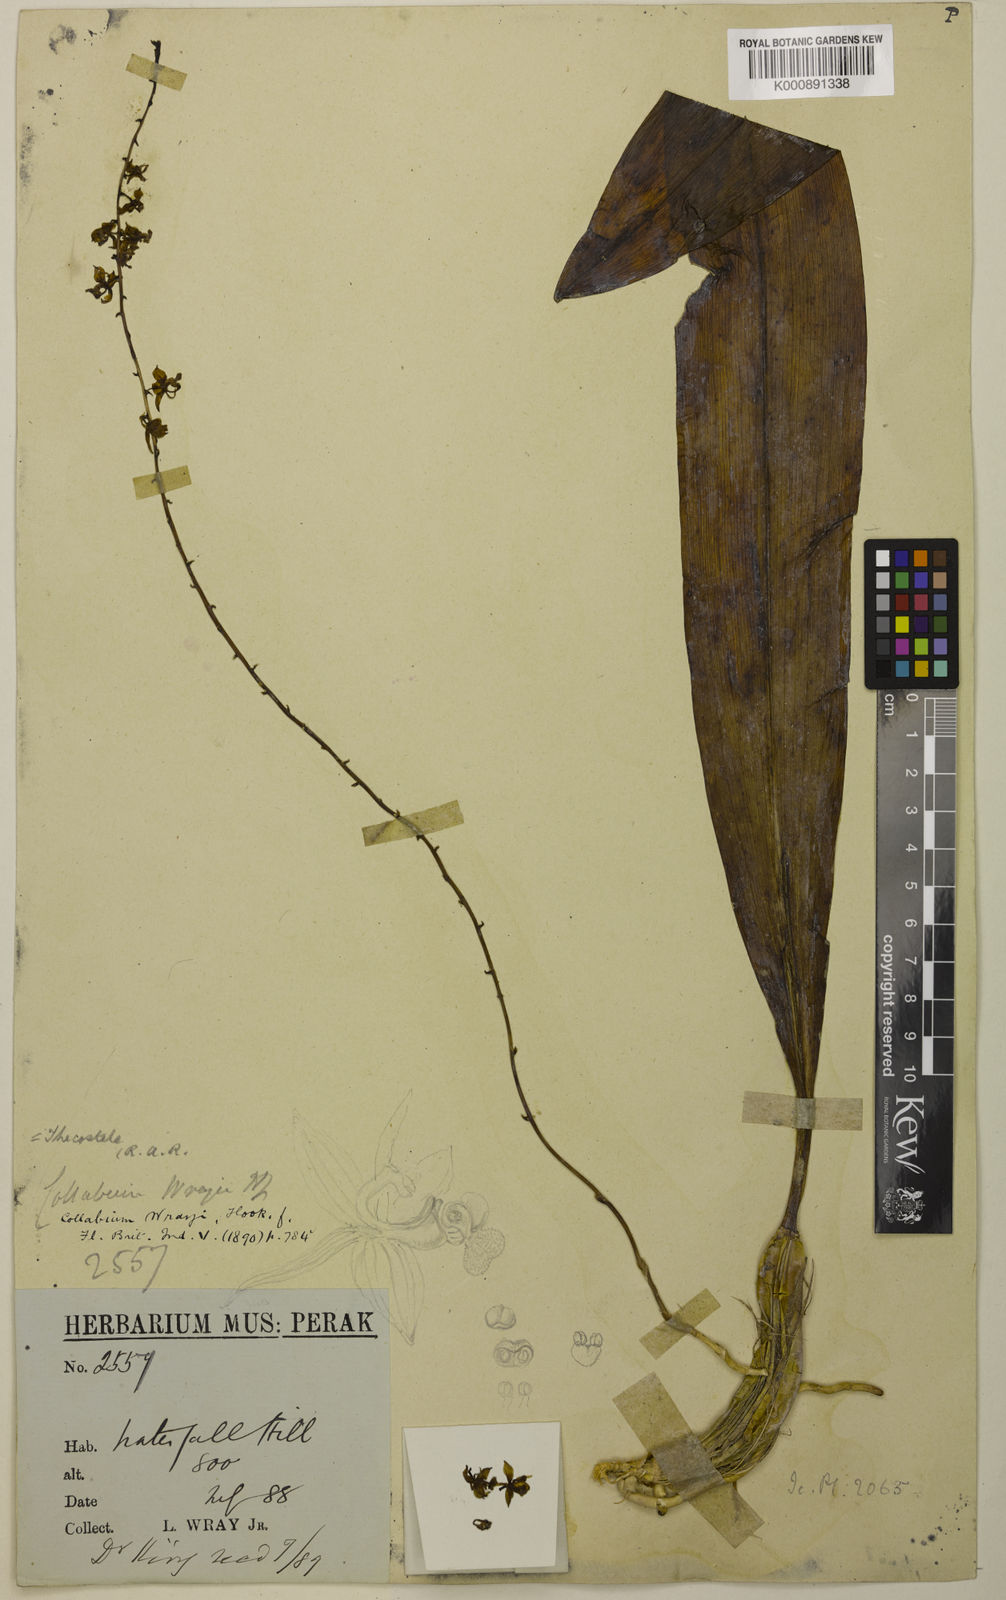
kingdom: Plantae
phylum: Tracheophyta
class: Liliopsida
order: Asparagales
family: Orchidaceae
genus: Thecostele
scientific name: Thecostele alata
